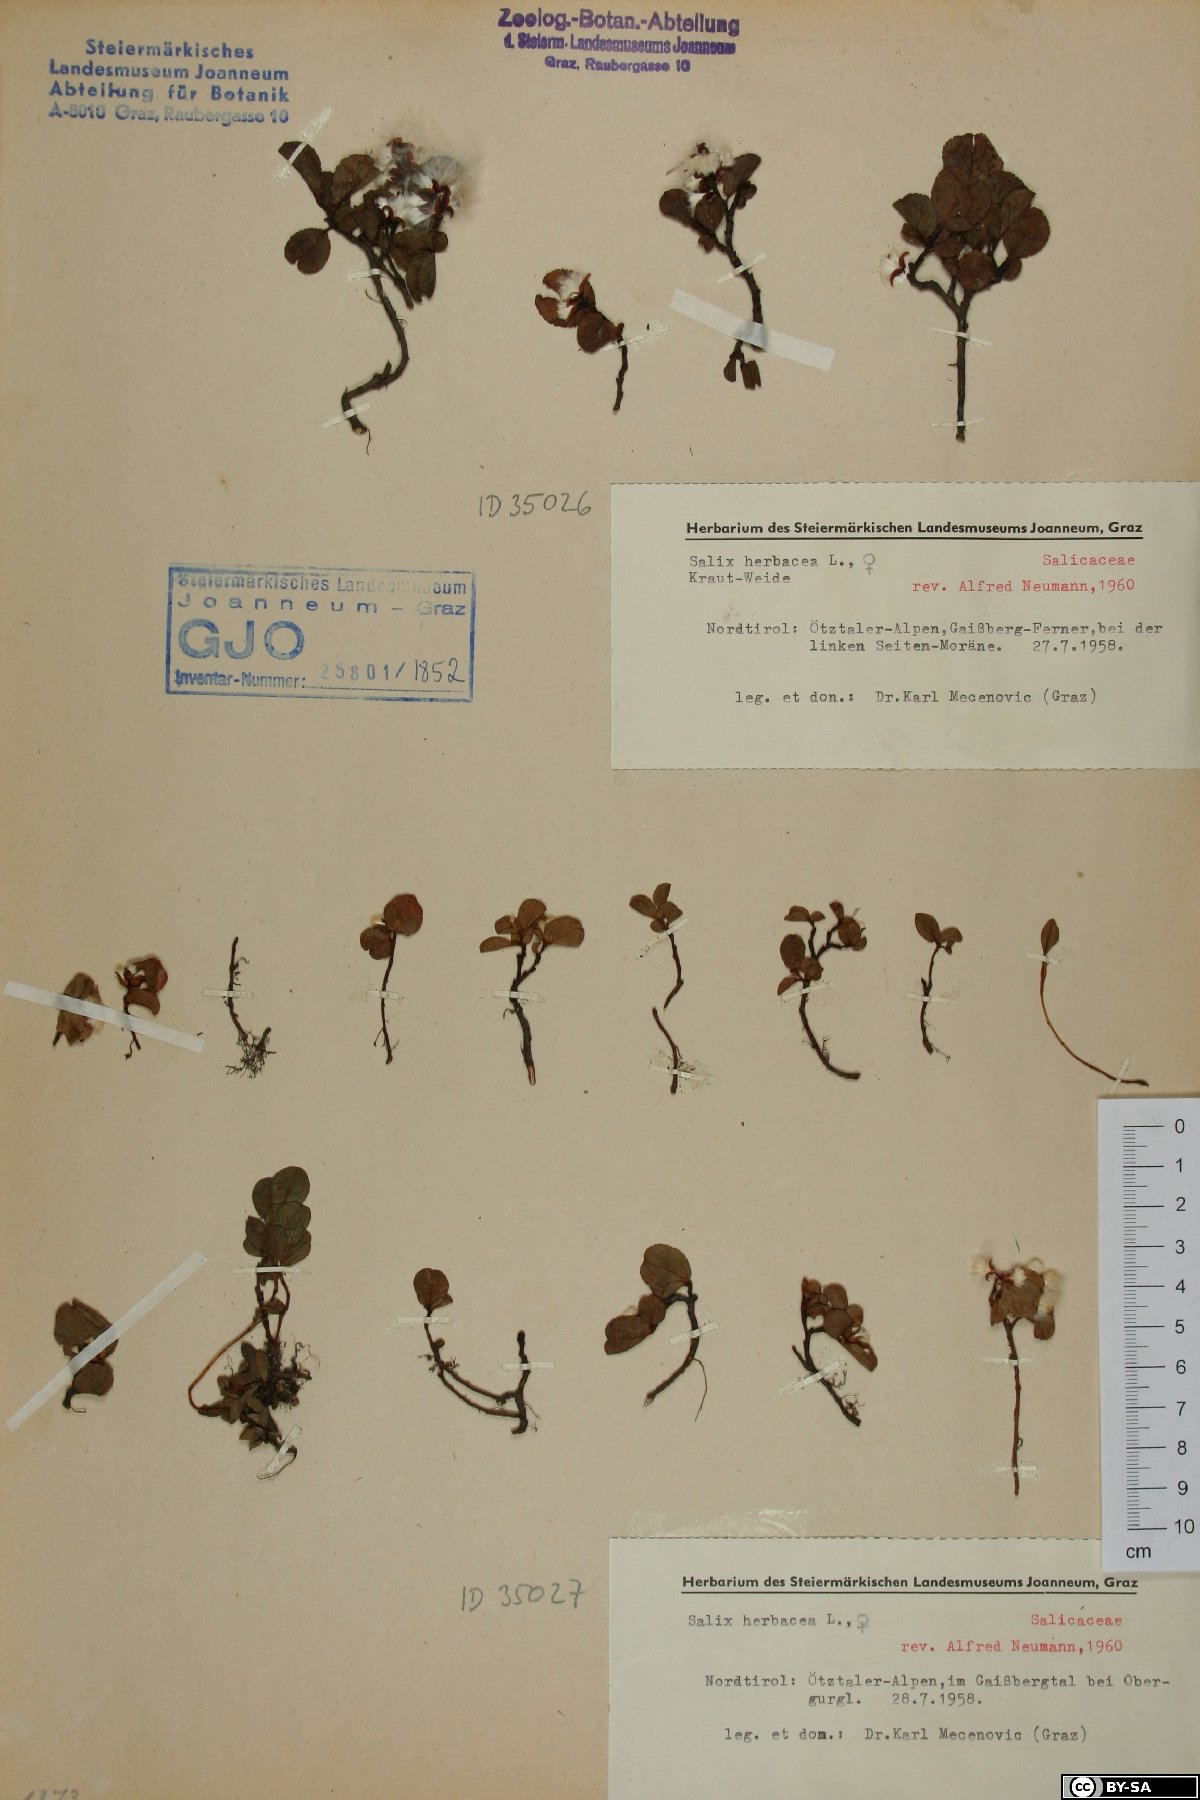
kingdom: Plantae
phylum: Tracheophyta
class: Magnoliopsida
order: Malpighiales
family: Salicaceae
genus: Salix
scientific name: Salix herbacea
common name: Dwarf willow
